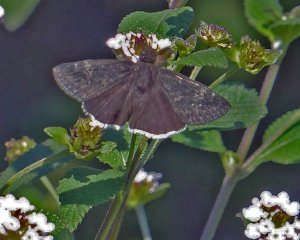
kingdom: Animalia
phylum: Arthropoda
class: Insecta
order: Lepidoptera
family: Hesperiidae
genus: Erynnis
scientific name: Erynnis funeralis
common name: Funereal Duskywing
